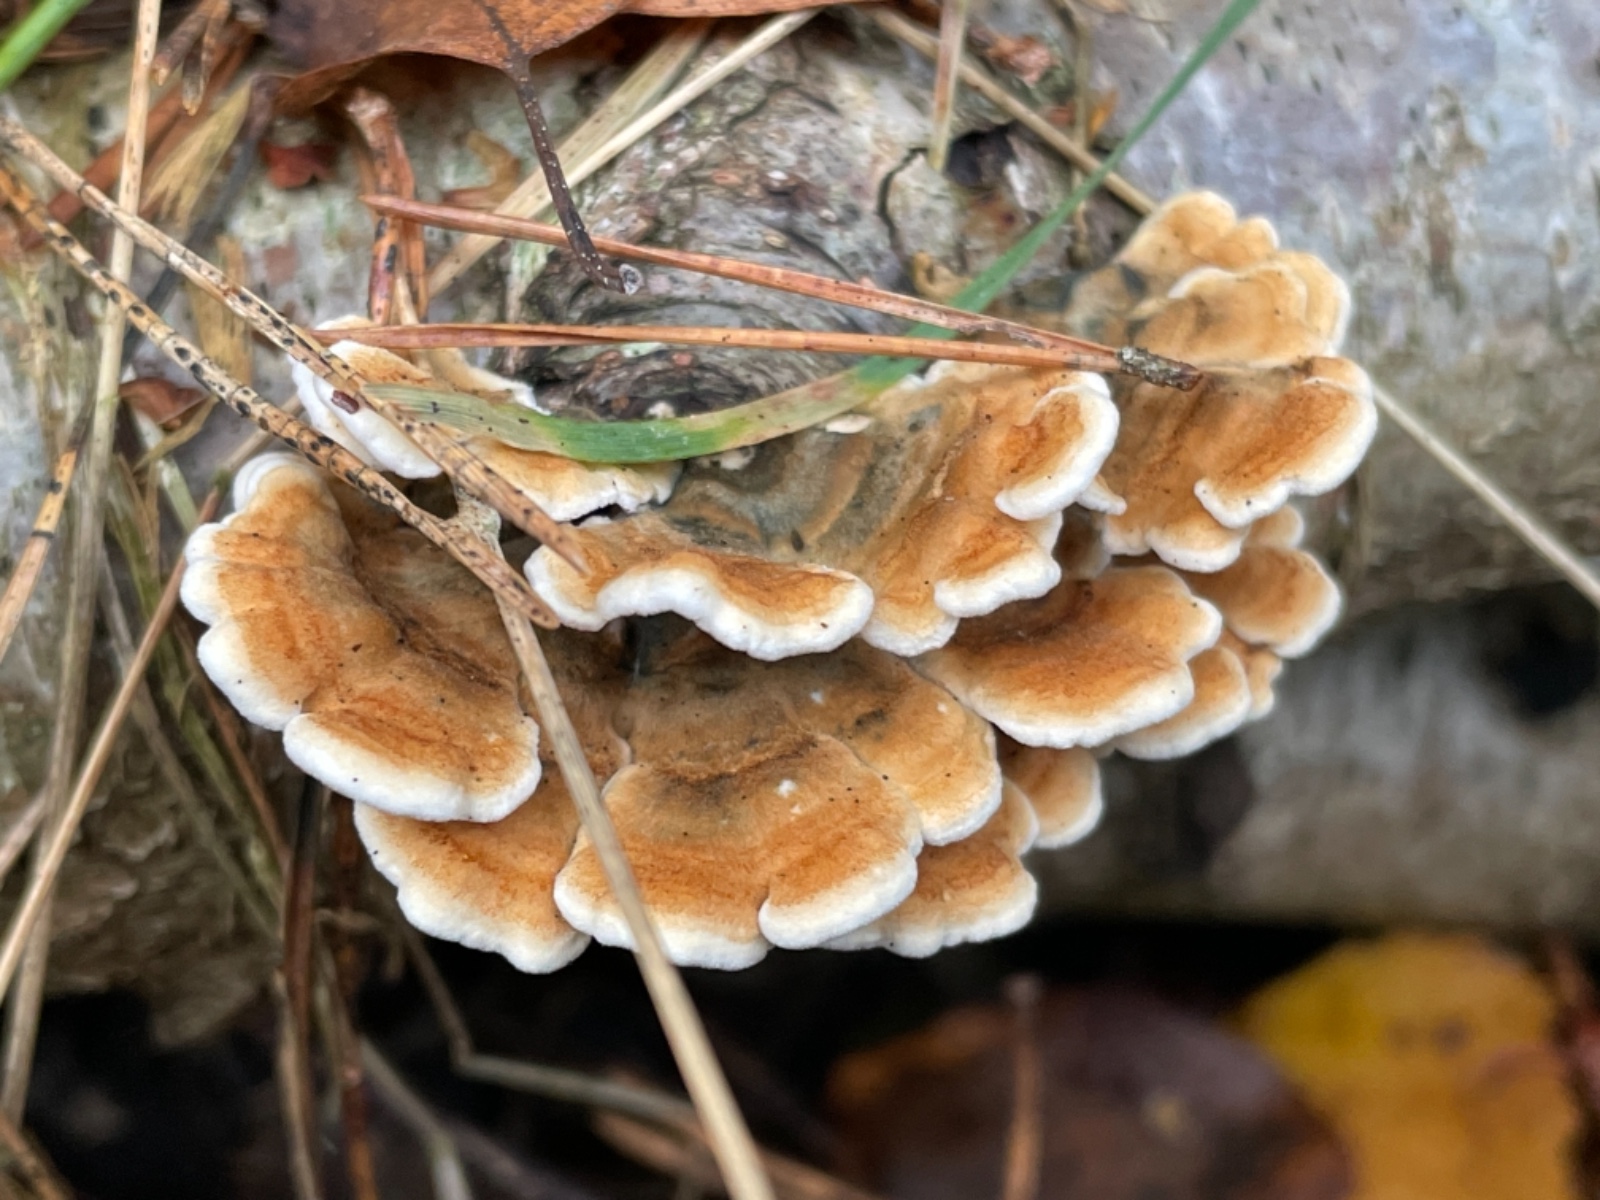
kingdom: Fungi
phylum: Basidiomycota
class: Agaricomycetes
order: Amylocorticiales
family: Amylocorticiaceae
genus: Plicaturopsis
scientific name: Plicaturopsis crispa
